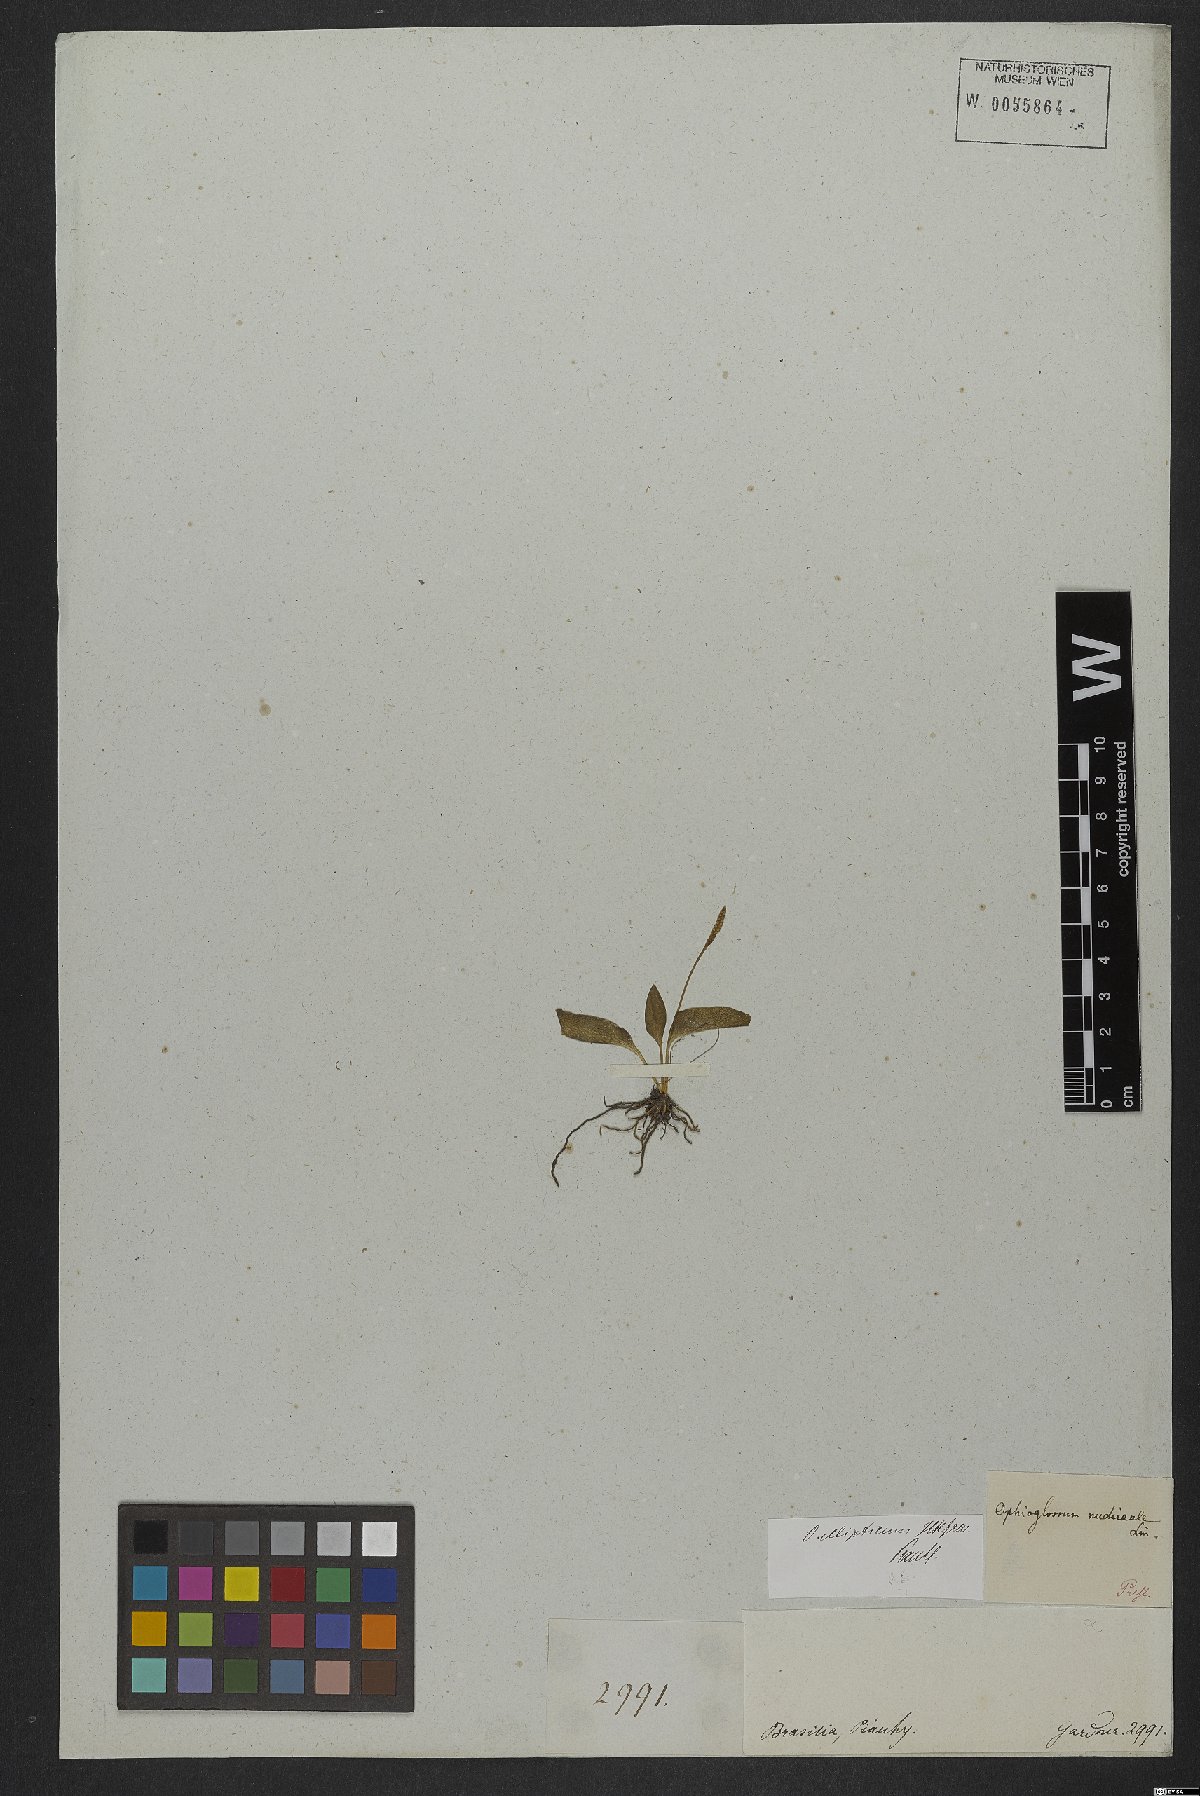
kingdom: Plantae
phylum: Tracheophyta
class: Polypodiopsida
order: Ophioglossales
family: Ophioglossaceae
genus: Ophioglossum
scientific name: Ophioglossum nudicaule
